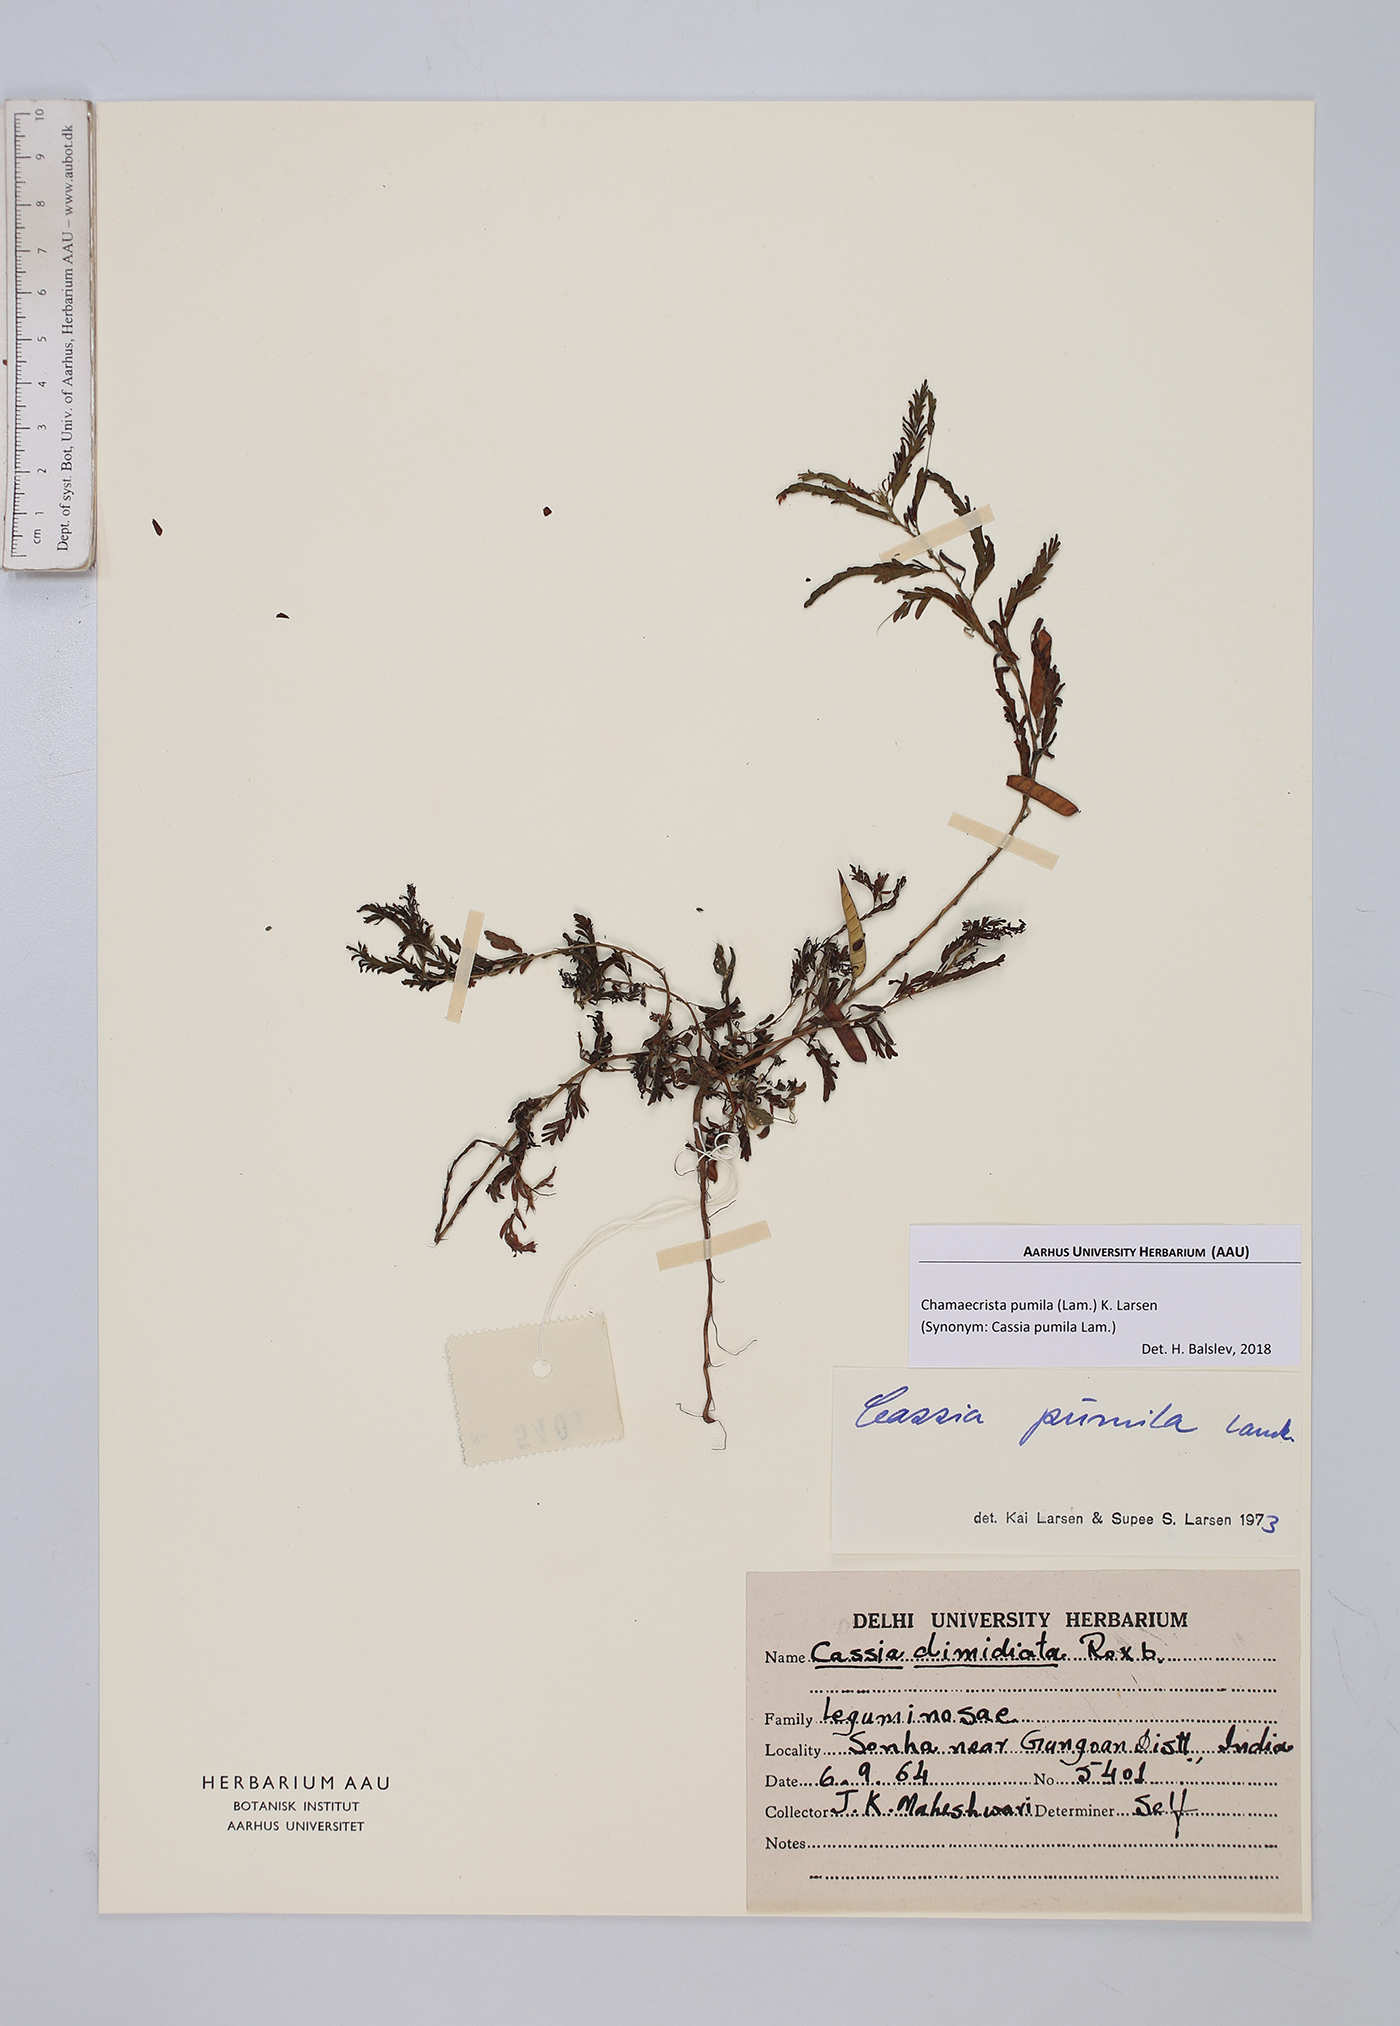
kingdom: Plantae
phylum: Tracheophyta
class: Magnoliopsida
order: Fabales
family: Fabaceae
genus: Chamaecrista
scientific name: Chamaecrista pumila
